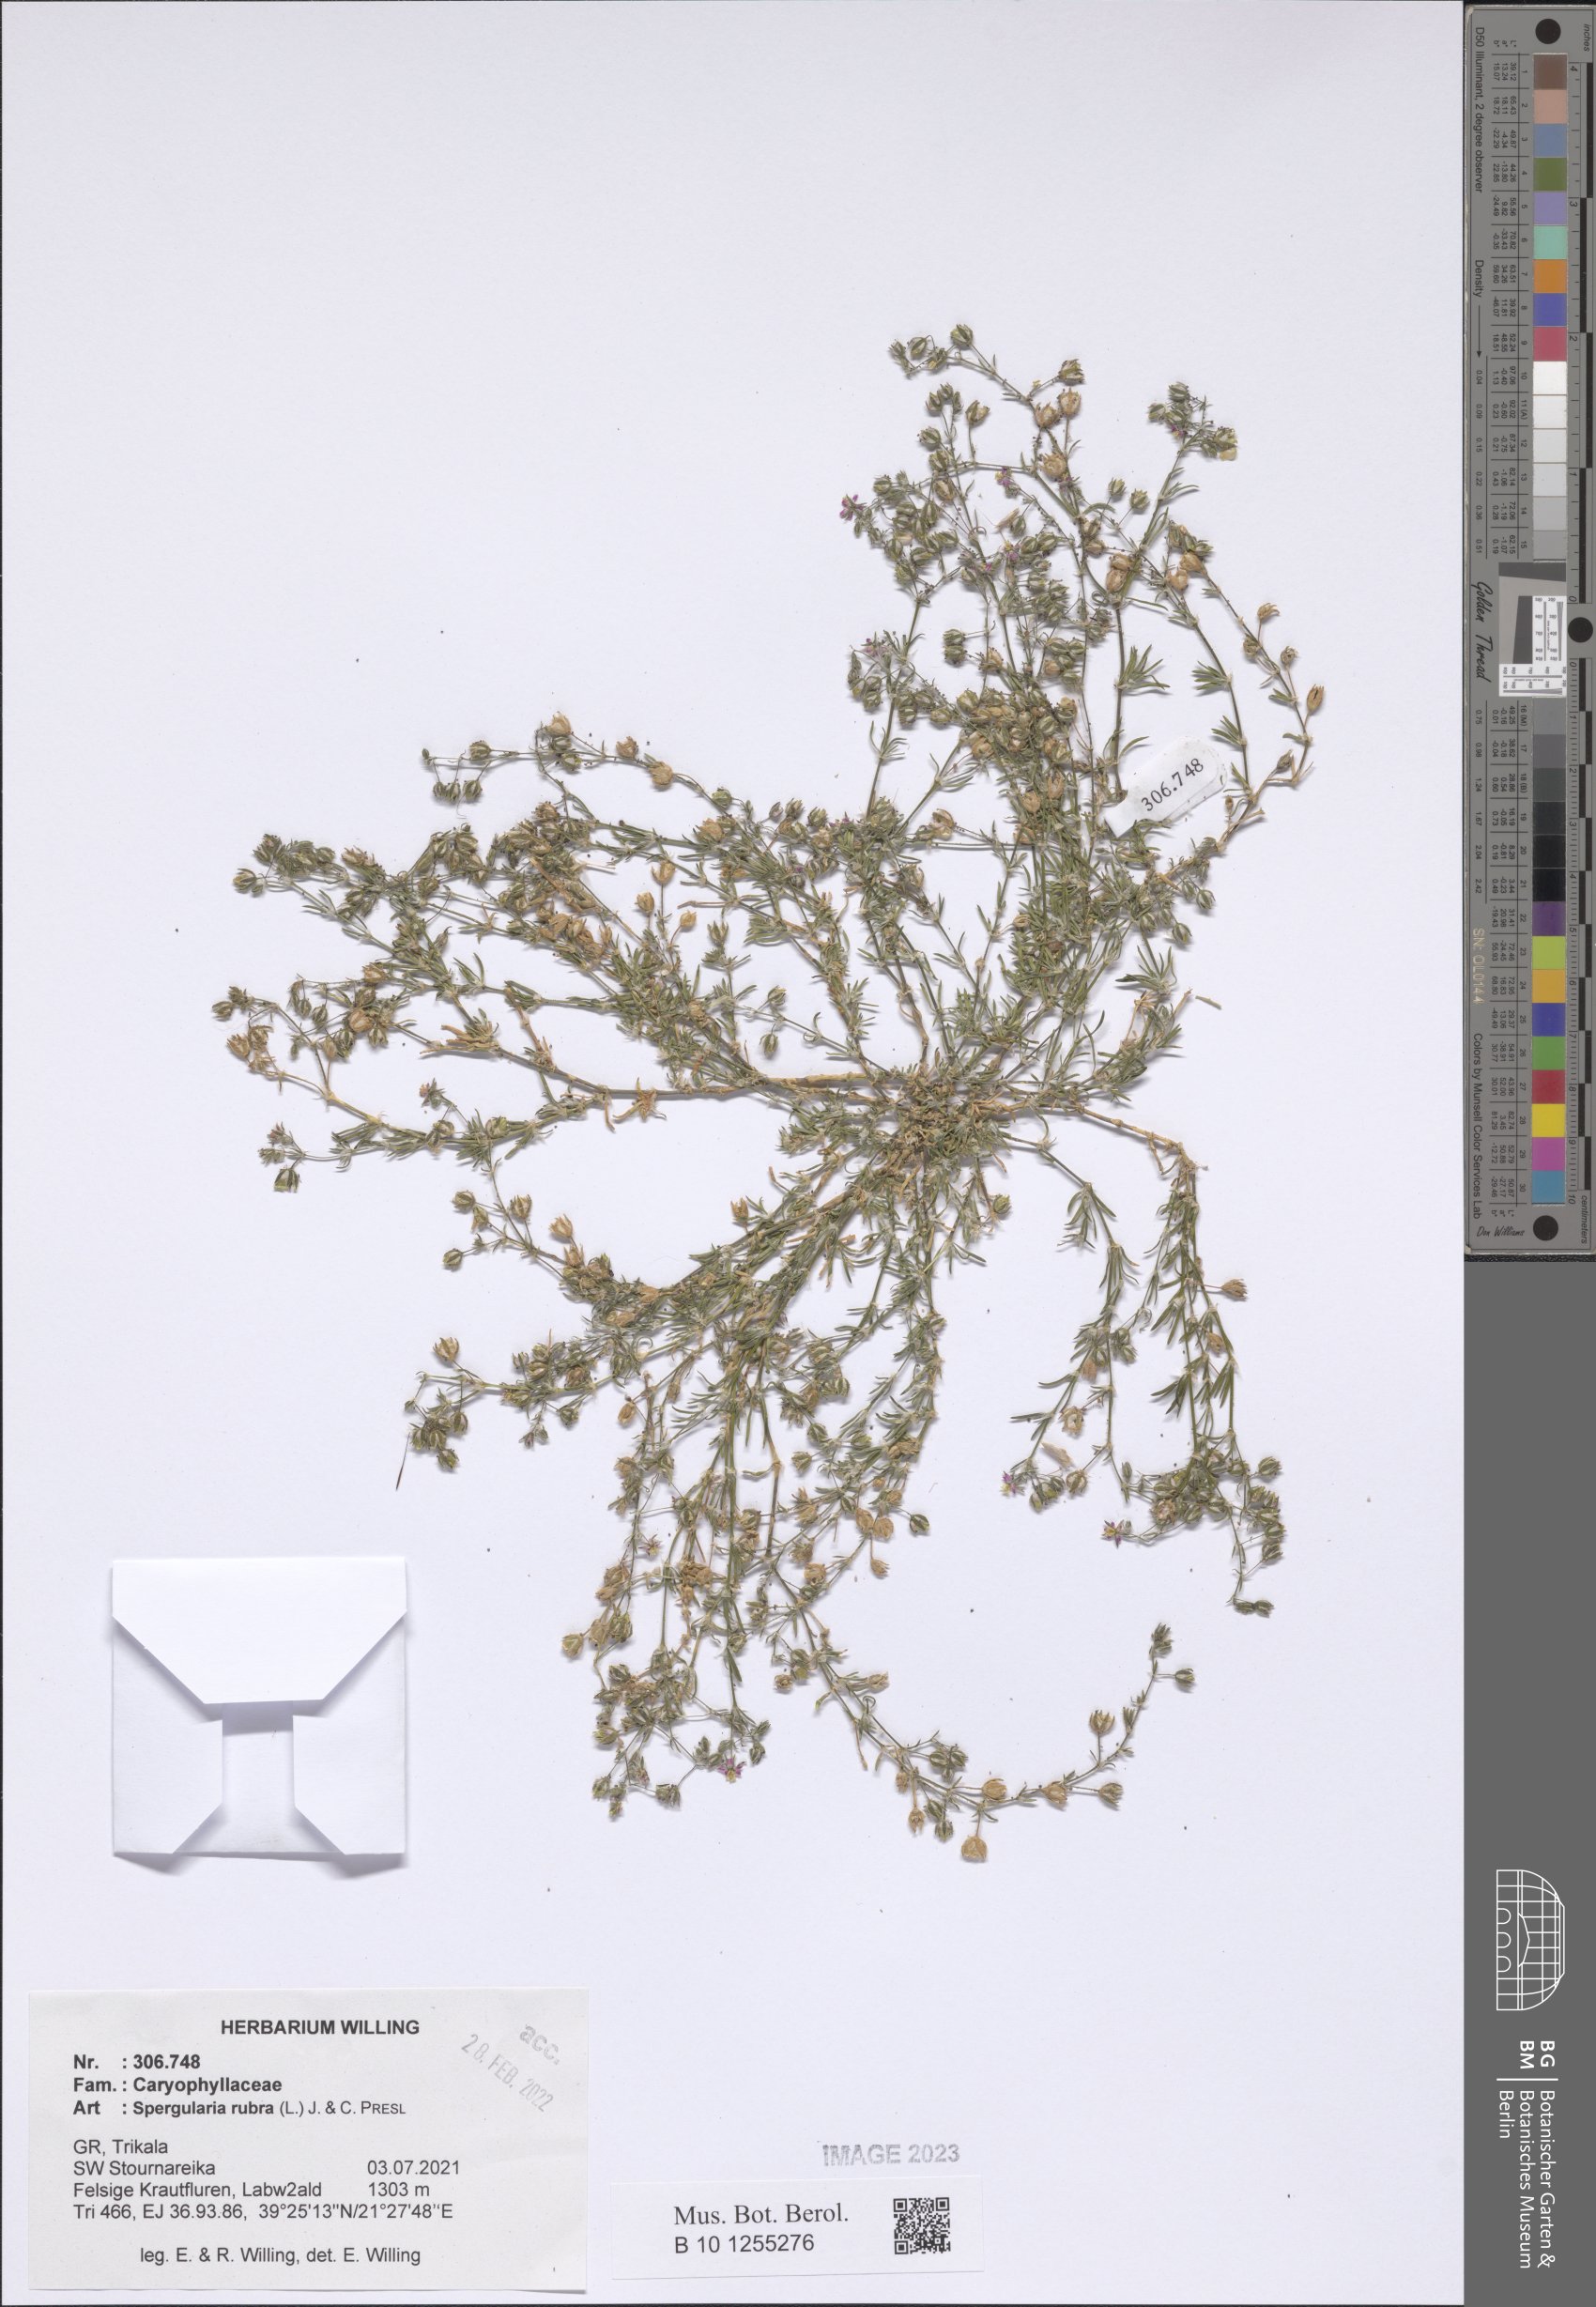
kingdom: Plantae
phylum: Tracheophyta
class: Magnoliopsida
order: Caryophyllales
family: Caryophyllaceae
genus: Spergularia
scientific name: Spergularia rubra
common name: Red sand-spurrey
